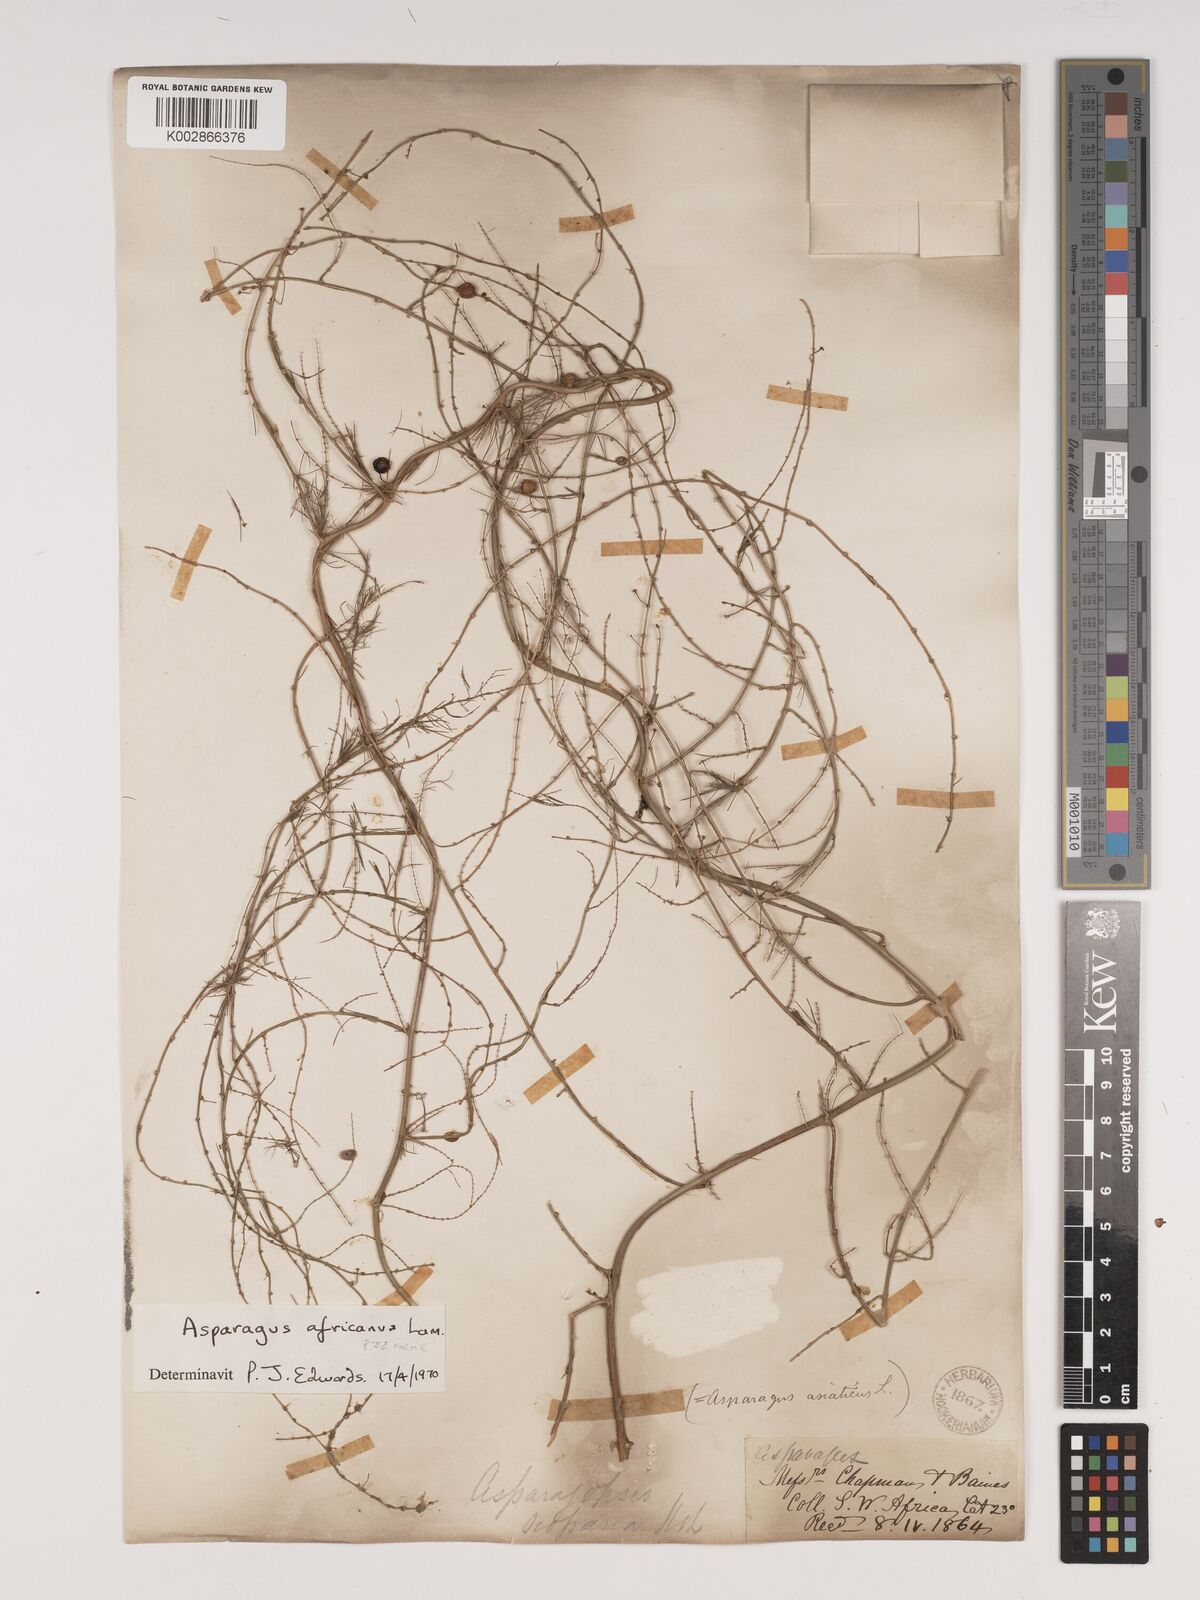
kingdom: Plantae
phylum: Tracheophyta
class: Liliopsida
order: Asparagales
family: Asparagaceae
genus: Asparagus
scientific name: Asparagus africanus
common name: Asparagus-fern
